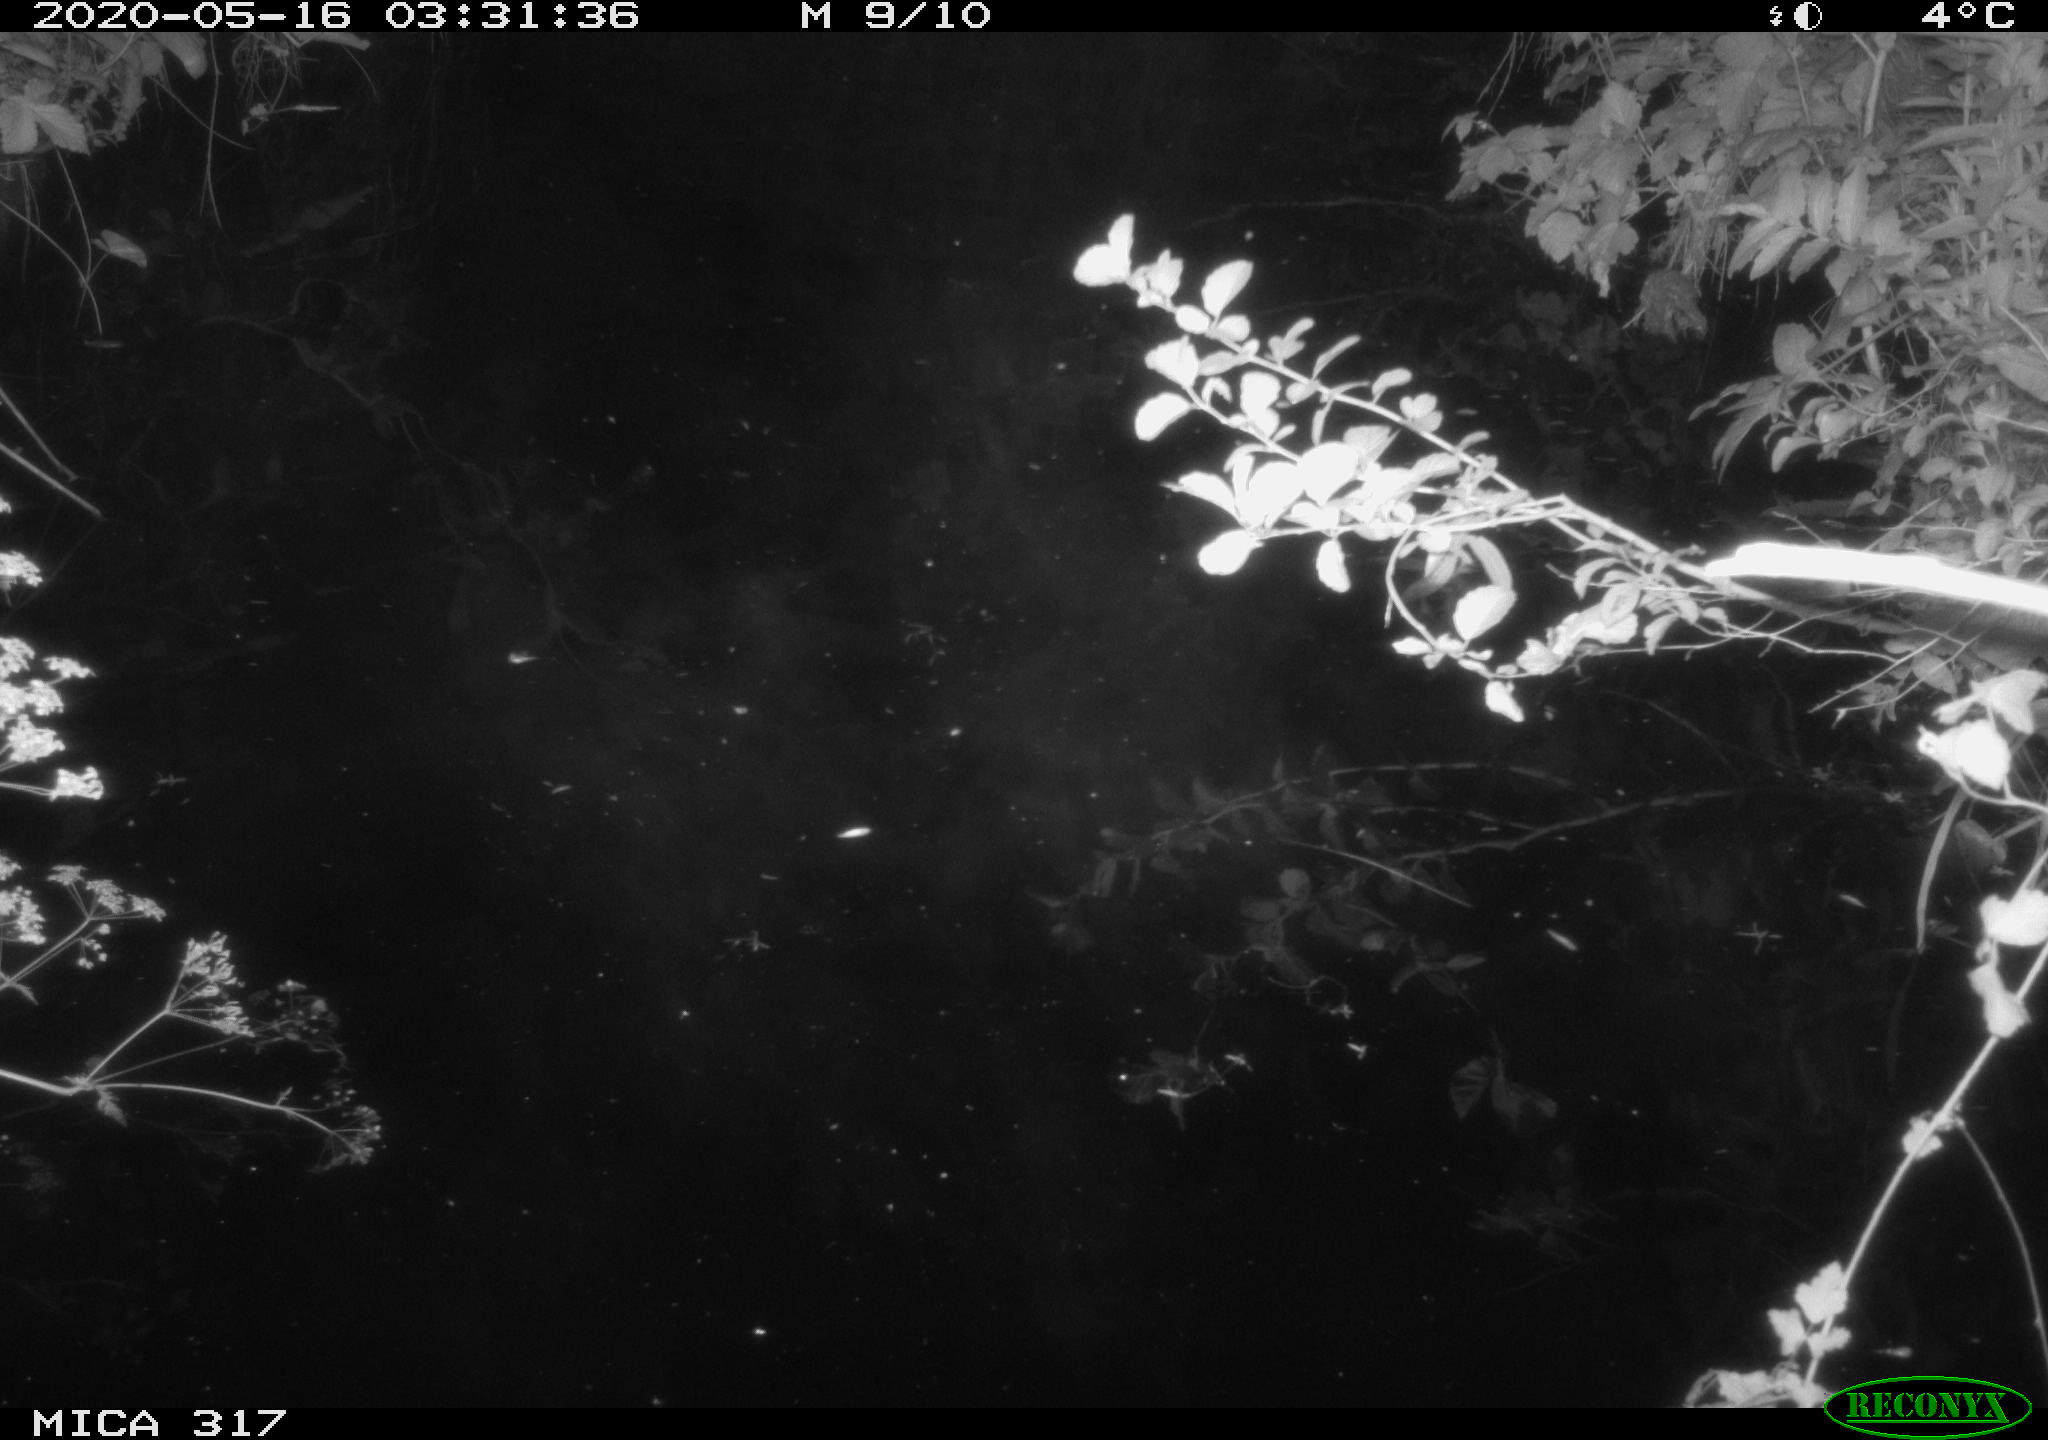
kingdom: Animalia
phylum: Chordata
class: Aves
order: Anseriformes
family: Anatidae
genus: Anas
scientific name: Anas platyrhynchos
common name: Mallard
